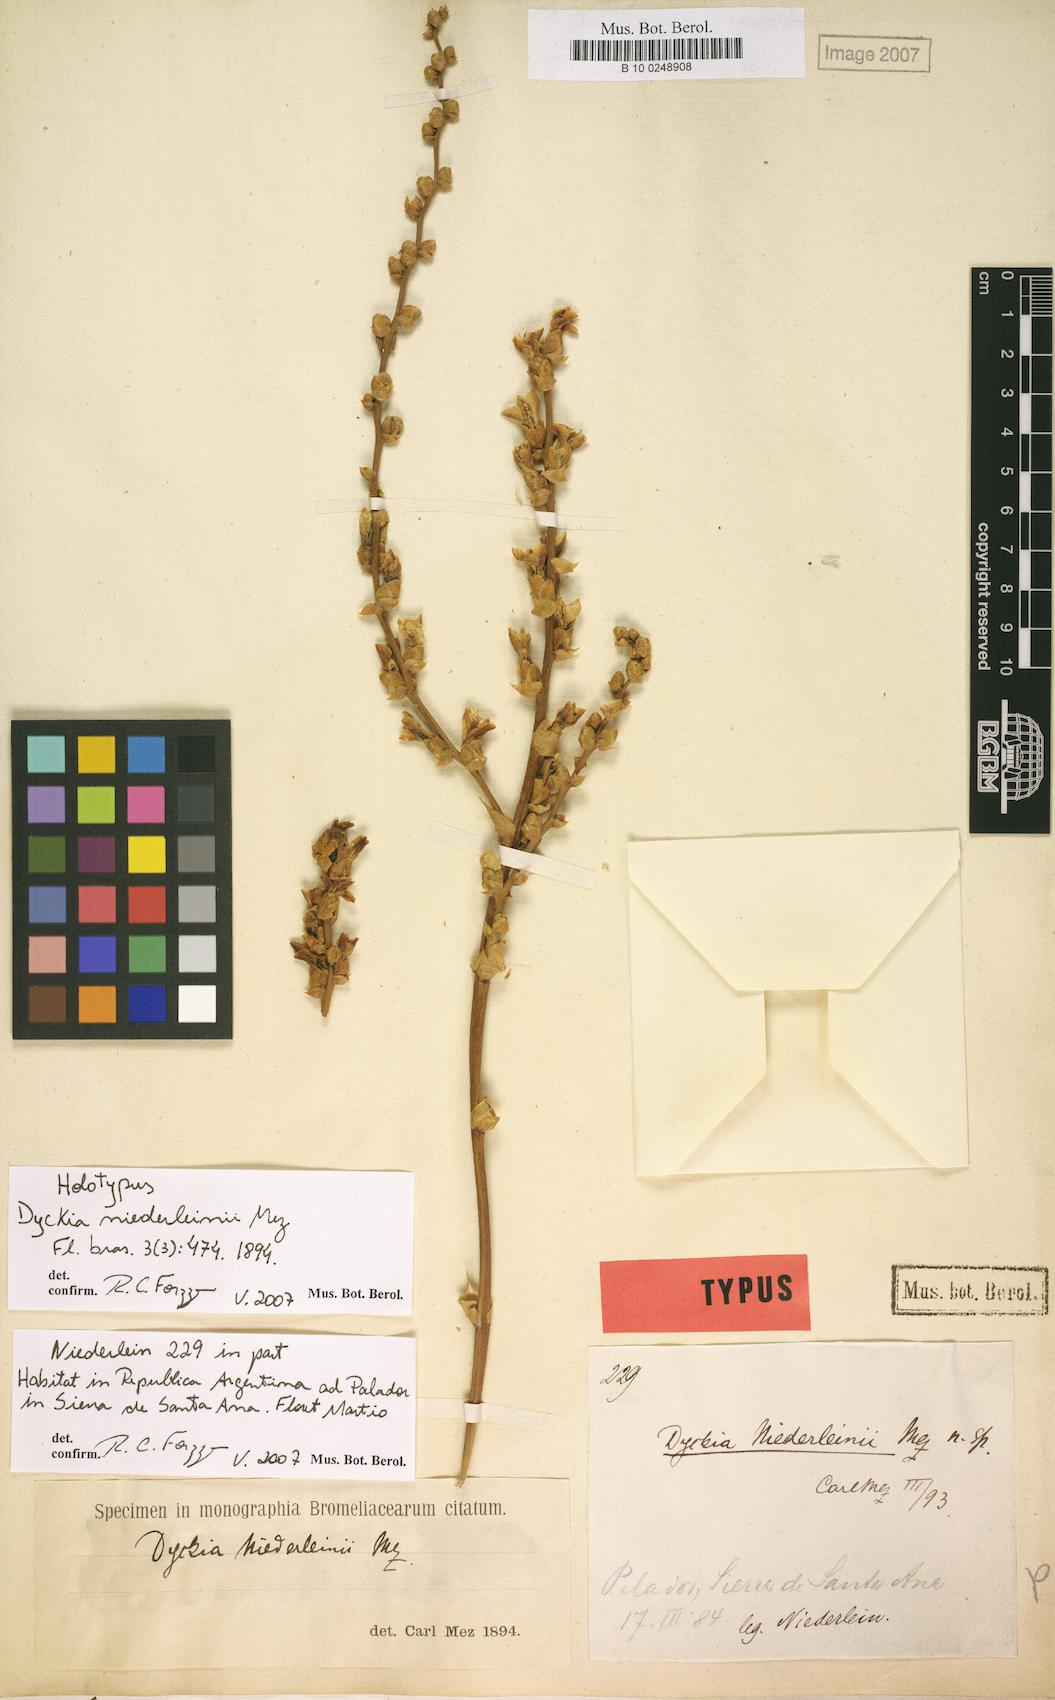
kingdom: Plantae
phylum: Tracheophyta
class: Liliopsida
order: Poales
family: Bromeliaceae
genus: Dyckia
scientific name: Dyckia niederleinii
